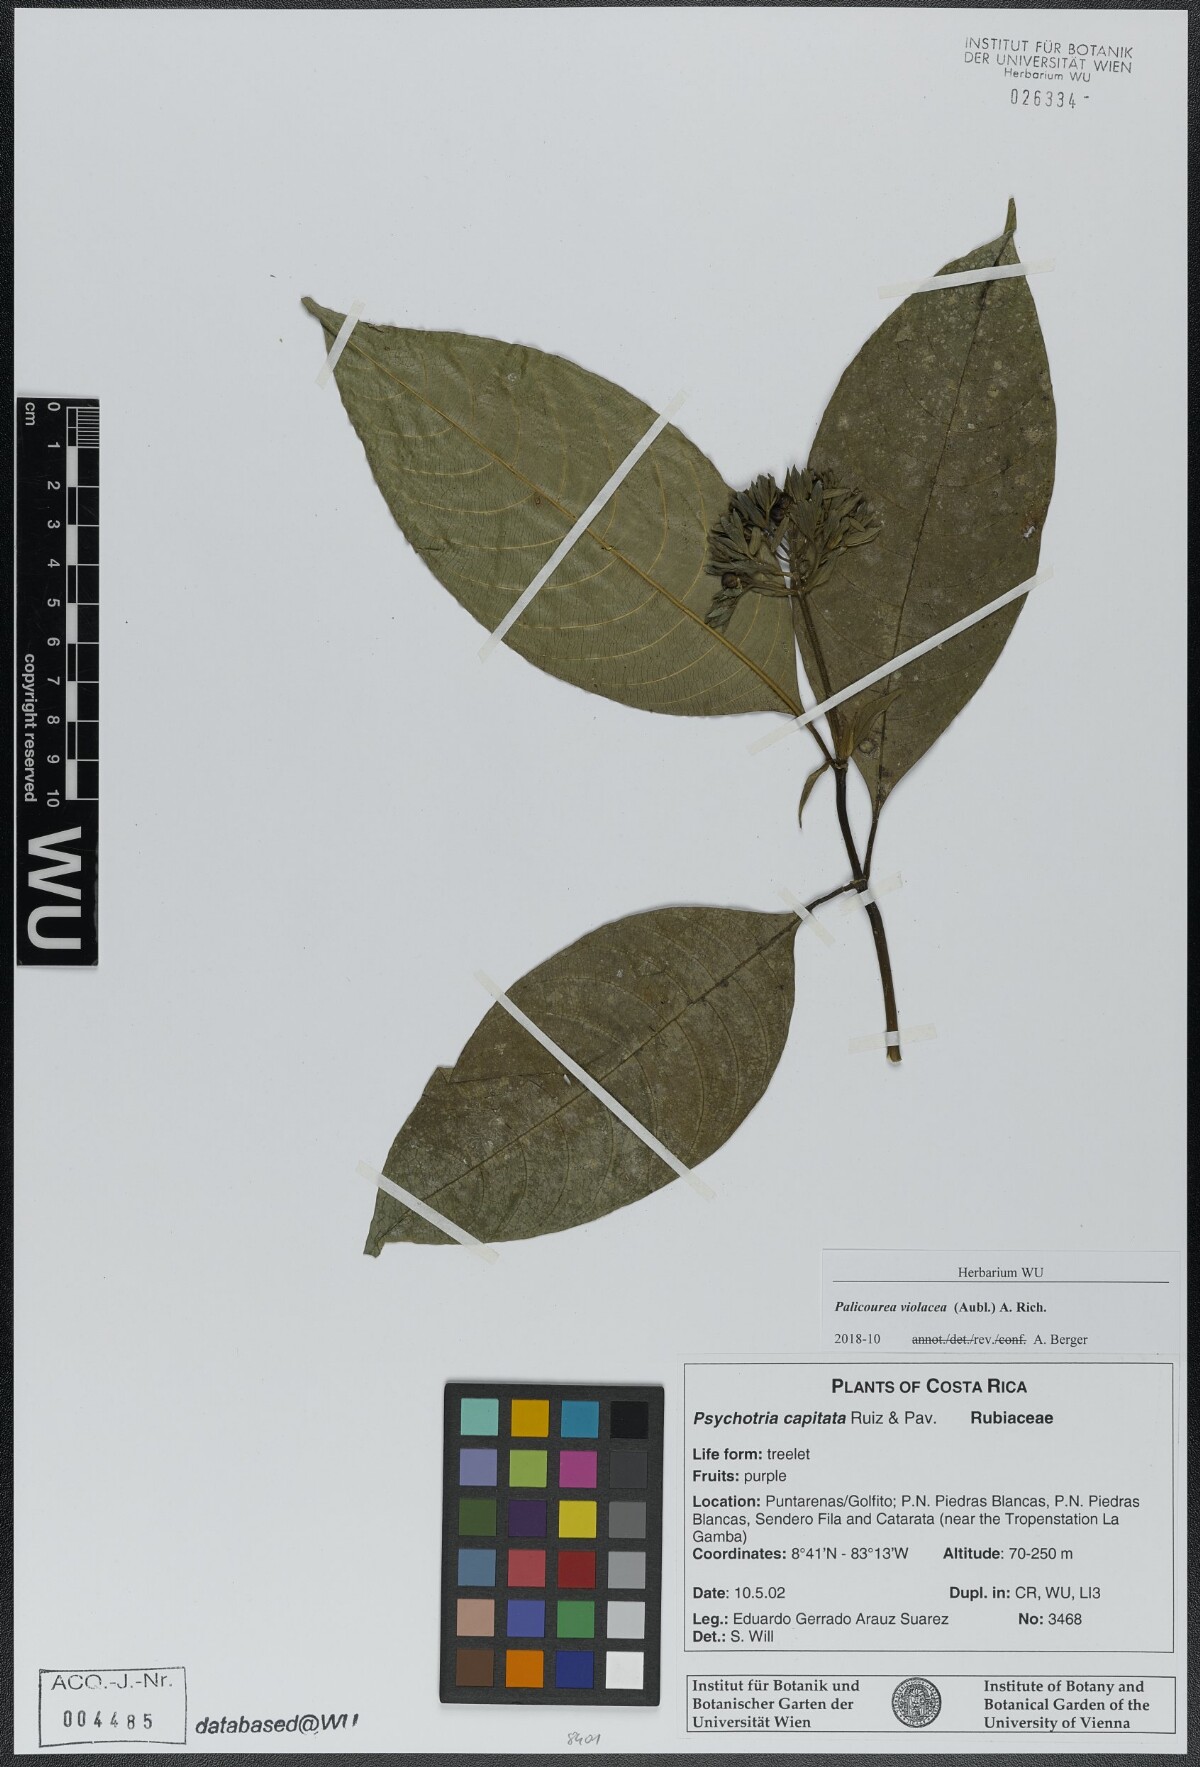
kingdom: Plantae
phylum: Tracheophyta
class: Magnoliopsida
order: Gentianales
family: Rubiaceae
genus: Palicourea
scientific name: Palicourea violacea
